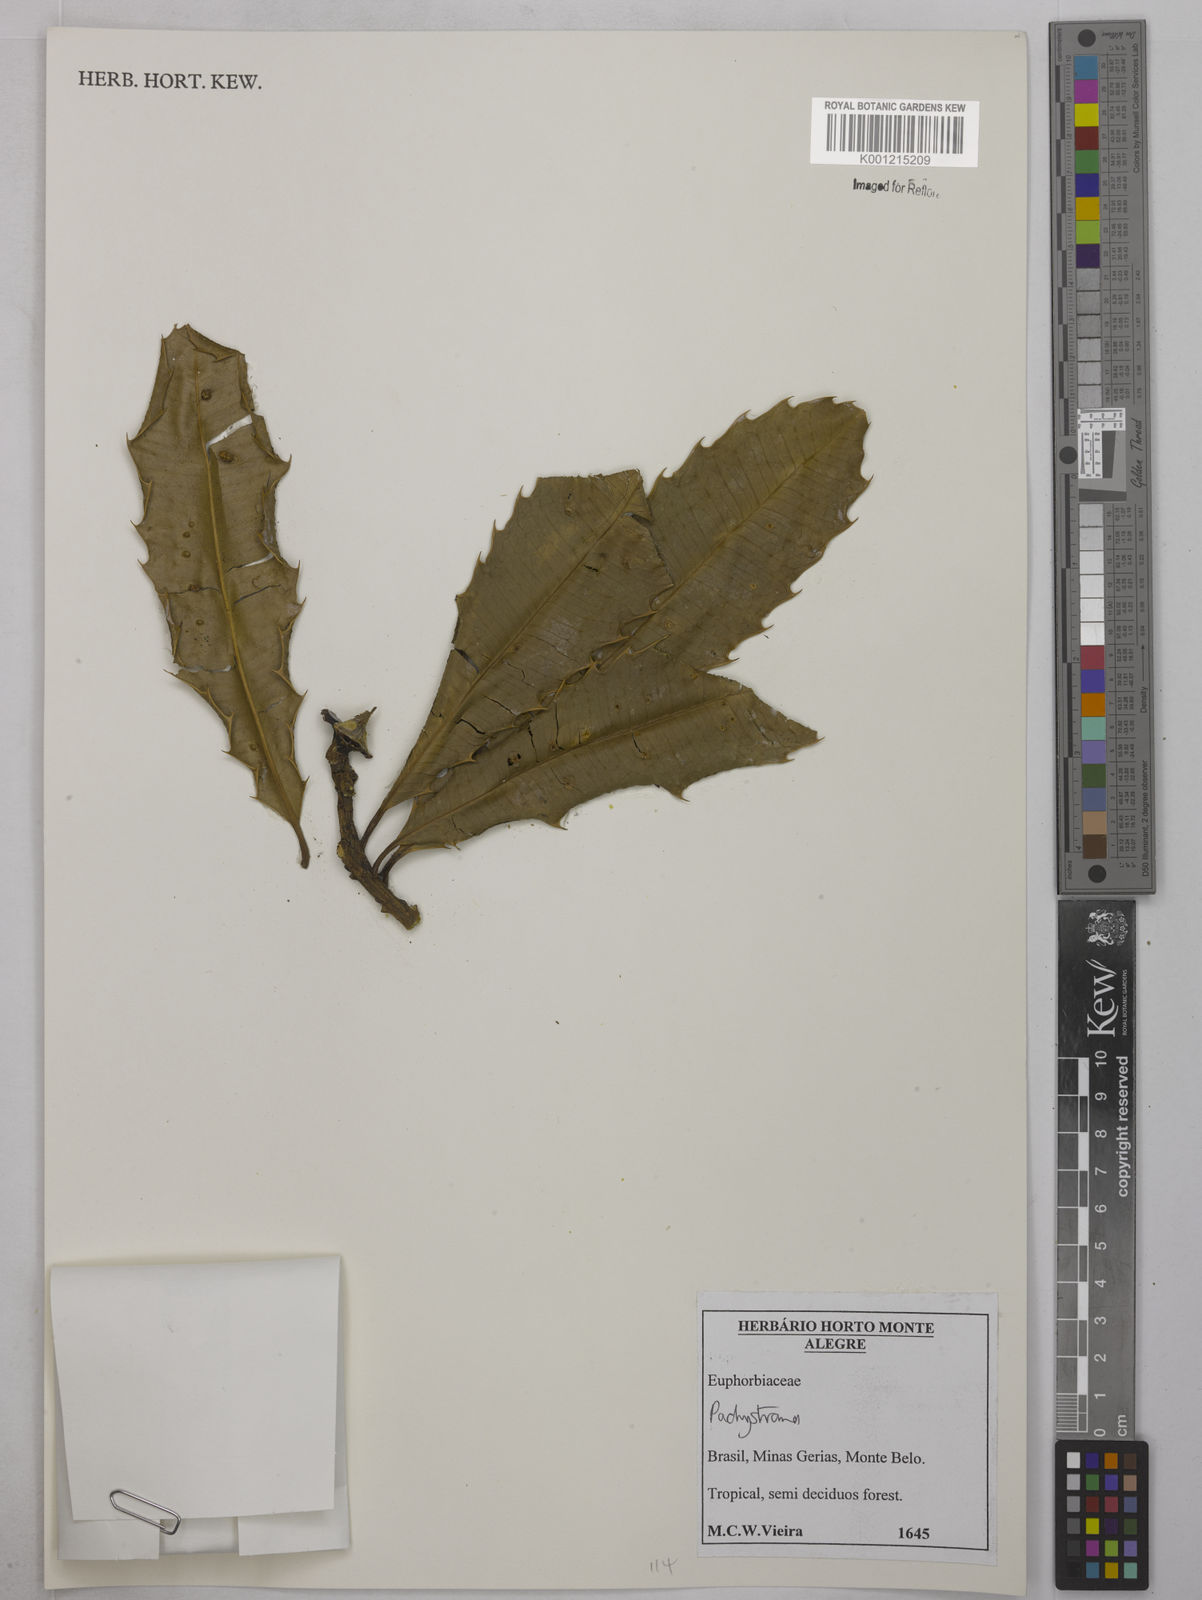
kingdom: Plantae
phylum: Tracheophyta
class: Magnoliopsida
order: Malpighiales
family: Euphorbiaceae
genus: Pachystroma
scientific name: Pachystroma
